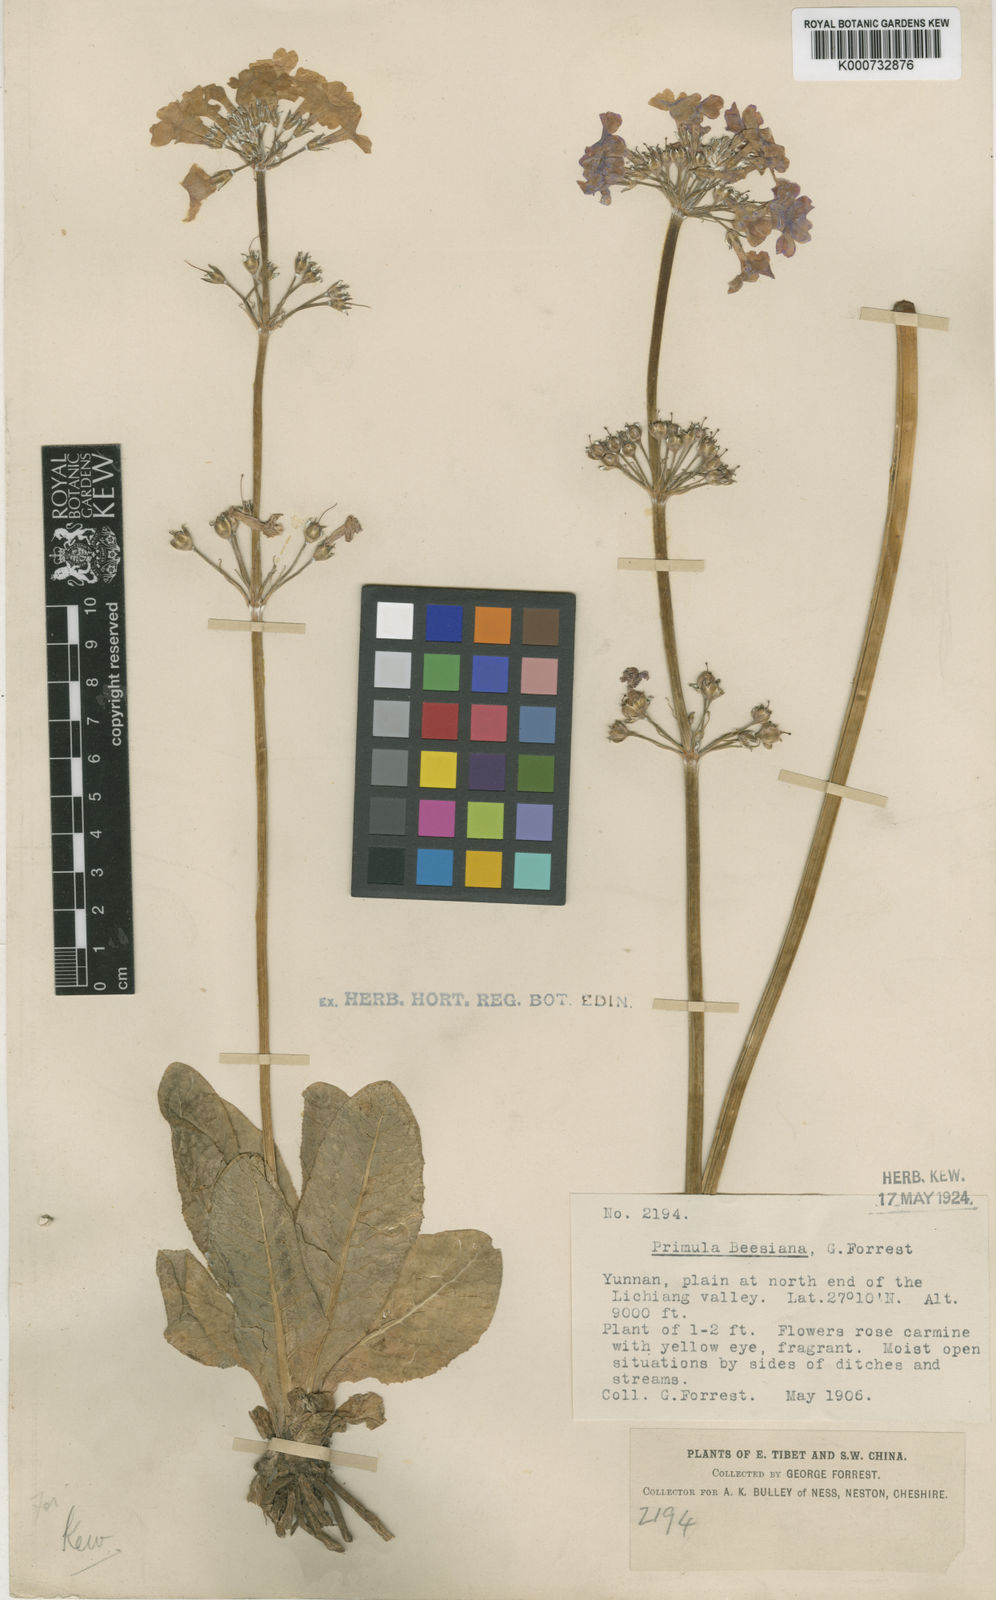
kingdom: Plantae
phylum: Tracheophyta
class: Magnoliopsida
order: Ericales
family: Primulaceae
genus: Primula
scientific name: Primula bulleyana
